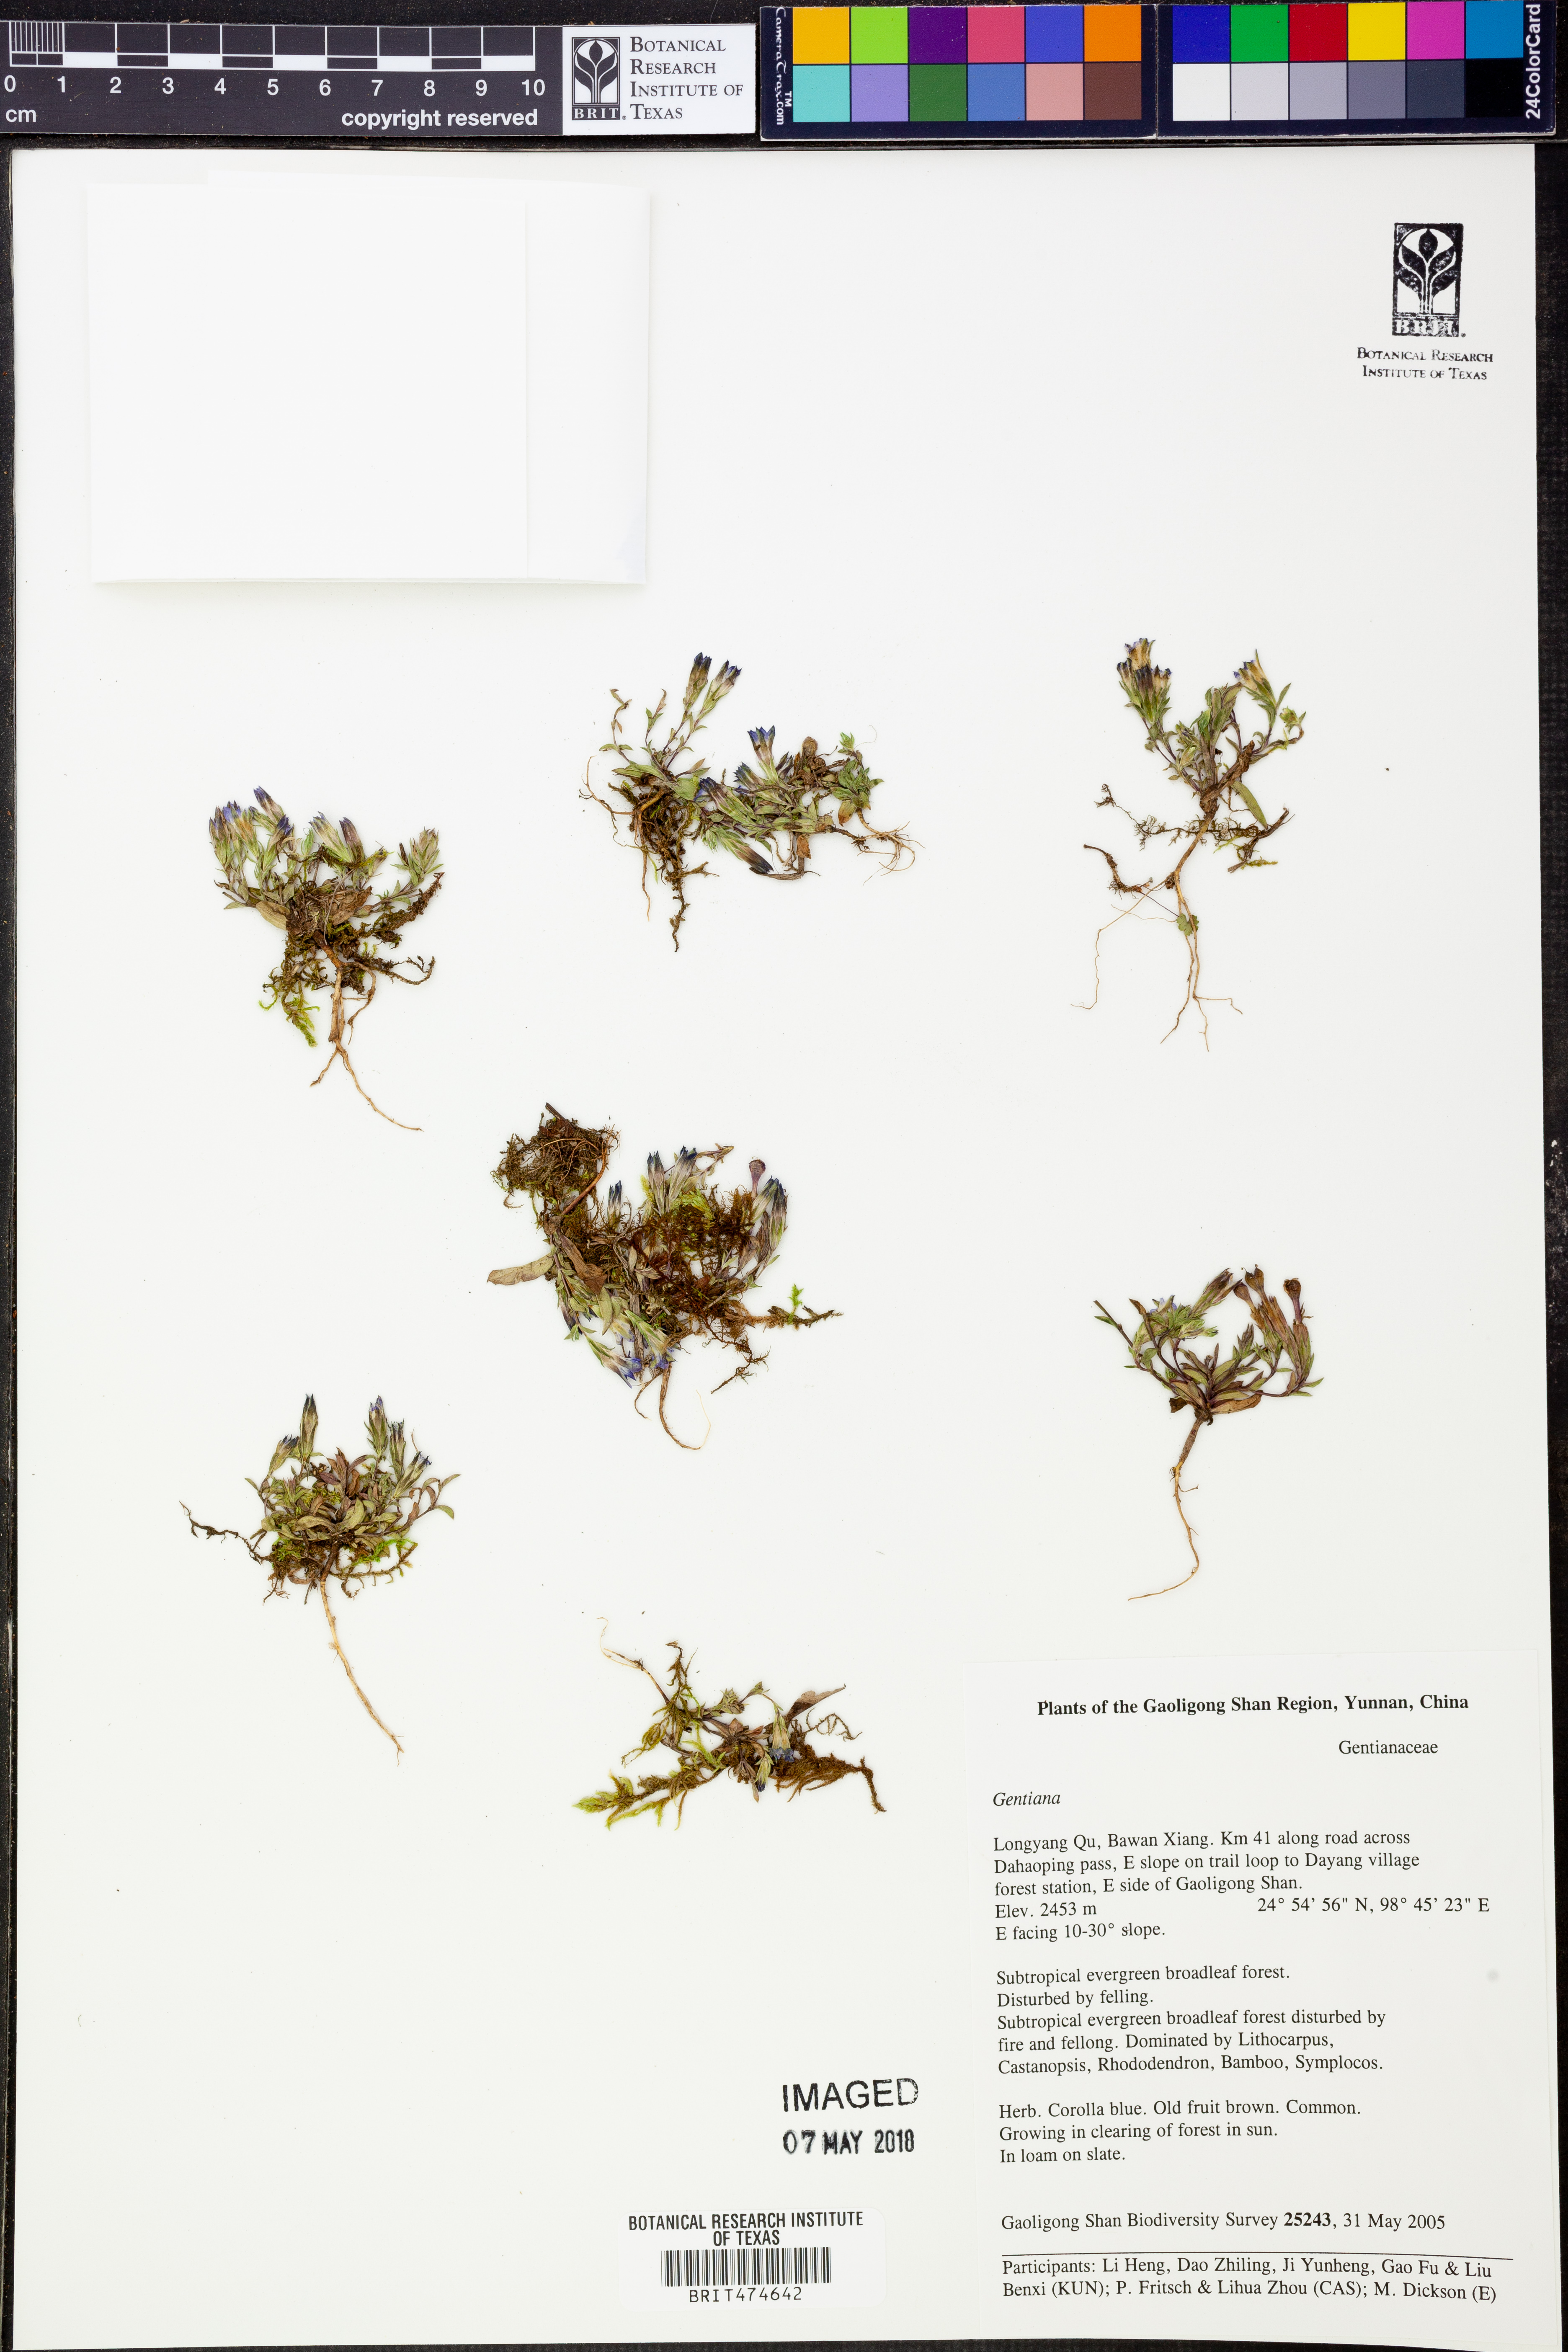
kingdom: Plantae
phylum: Tracheophyta
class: Magnoliopsida
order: Gentianales
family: Gentianaceae
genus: Gentiana
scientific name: Gentiana
